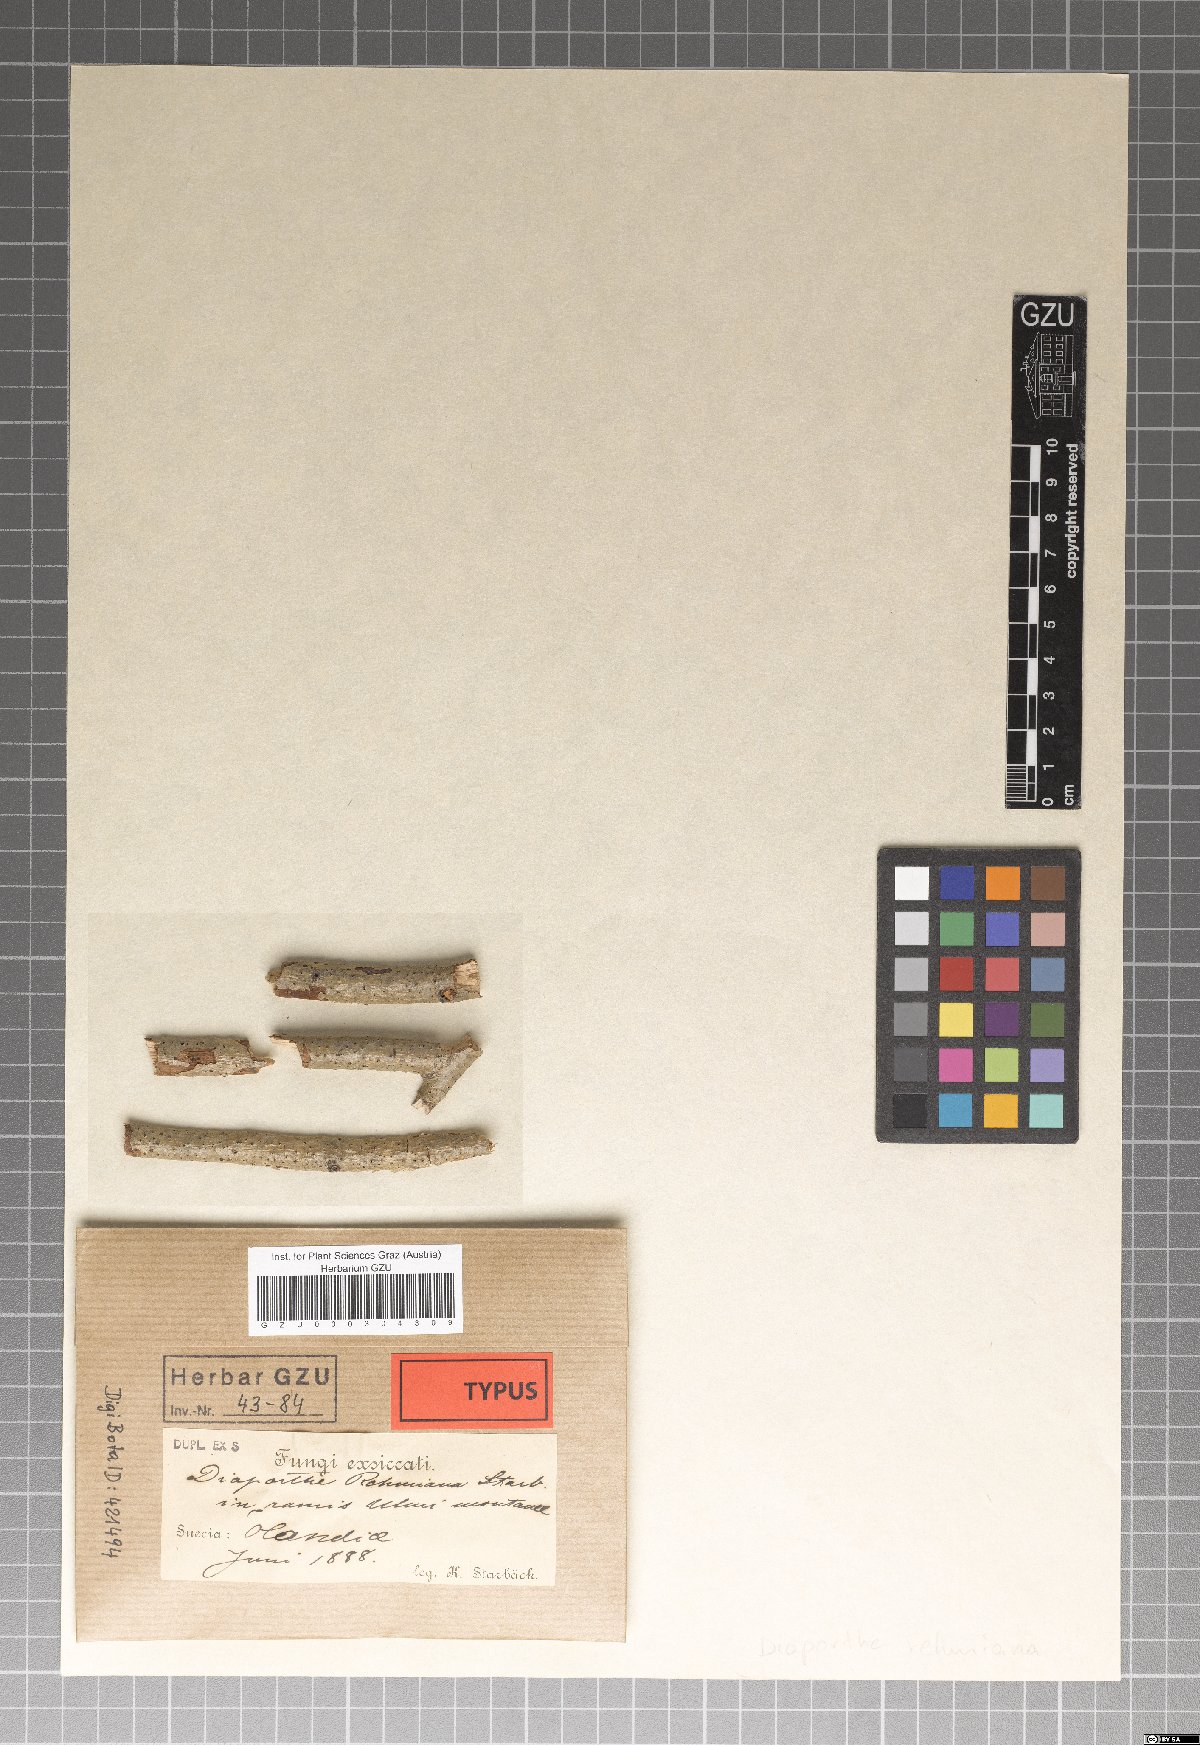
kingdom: Fungi
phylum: Ascomycota
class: Sordariomycetes
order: Diaporthales
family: Diaporthaceae
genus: Diaporthe
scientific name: Diaporthe rehmiana
